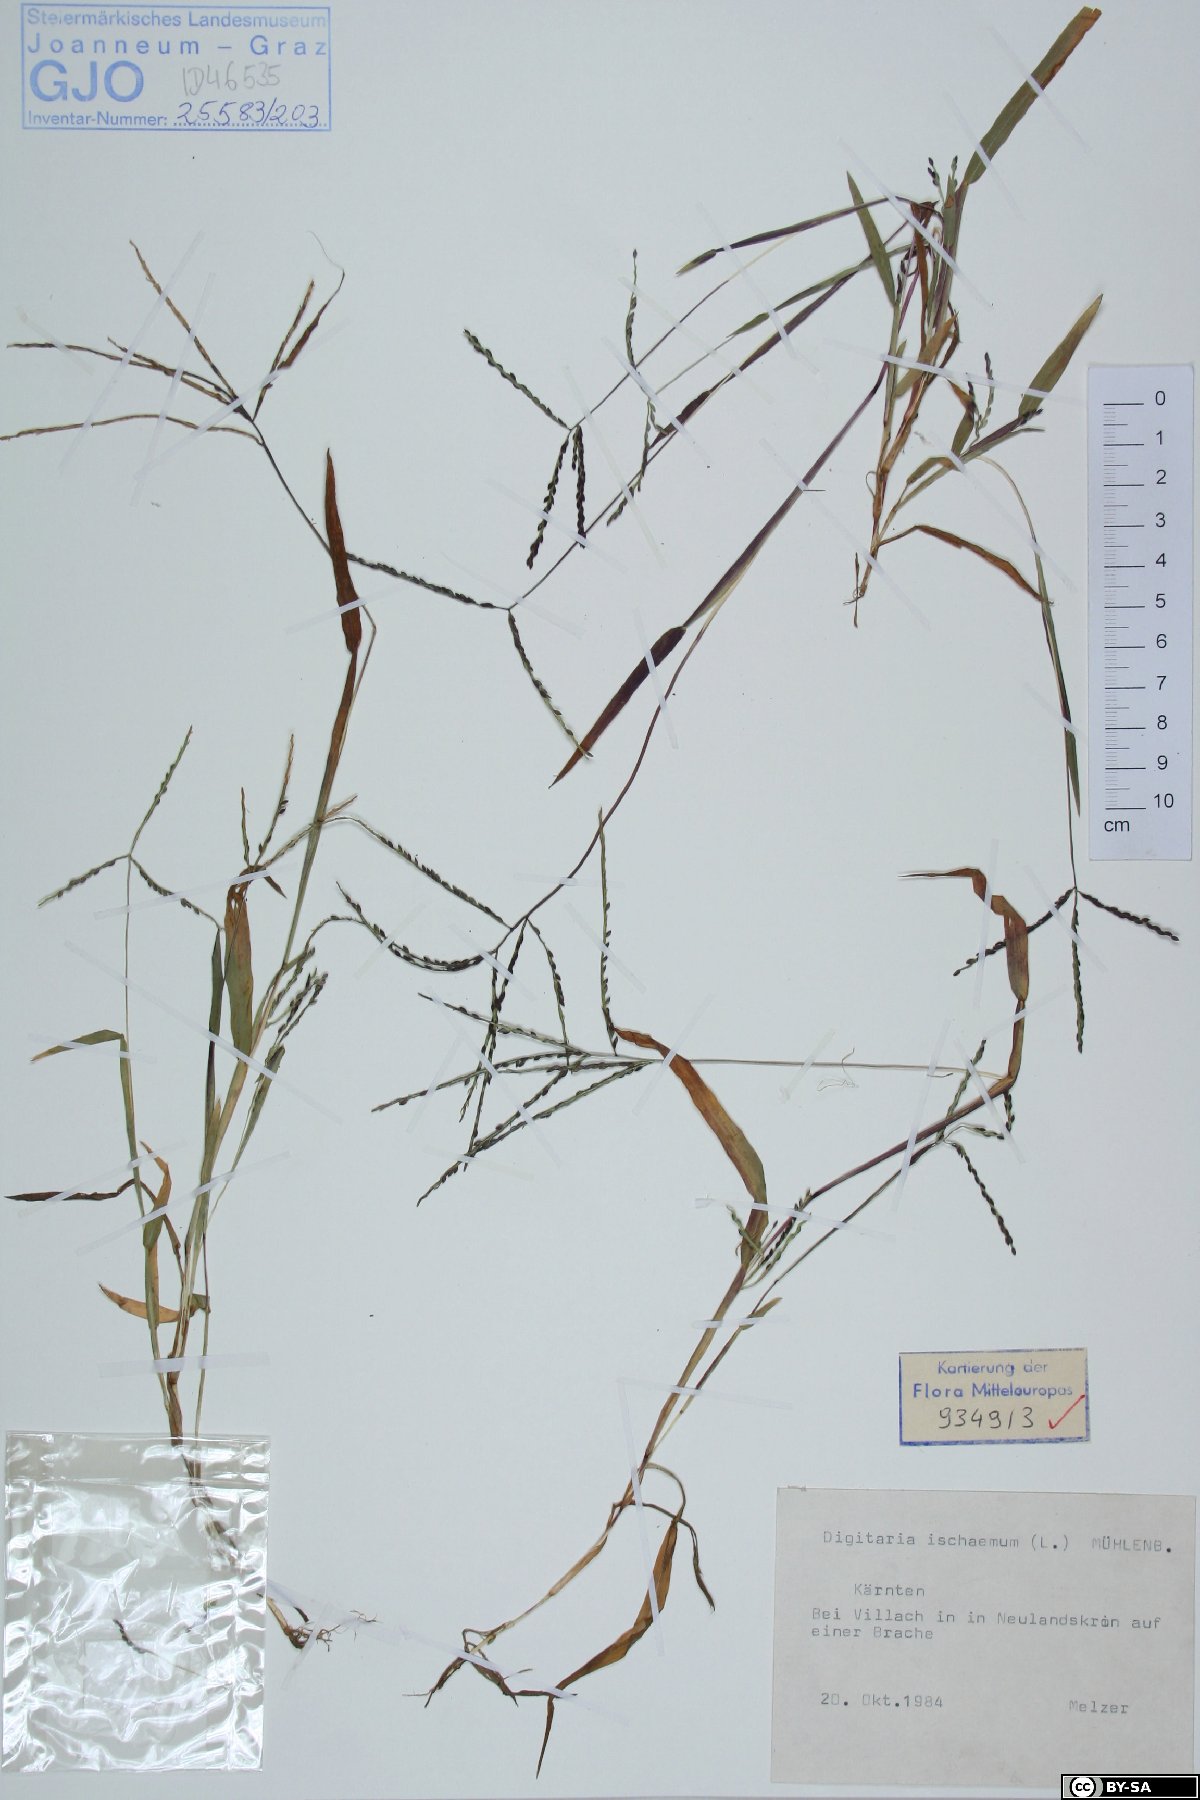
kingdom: Plantae
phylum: Tracheophyta
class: Liliopsida
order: Poales
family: Poaceae
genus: Digitaria
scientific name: Digitaria ischaemum
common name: Smooth crabgrass
